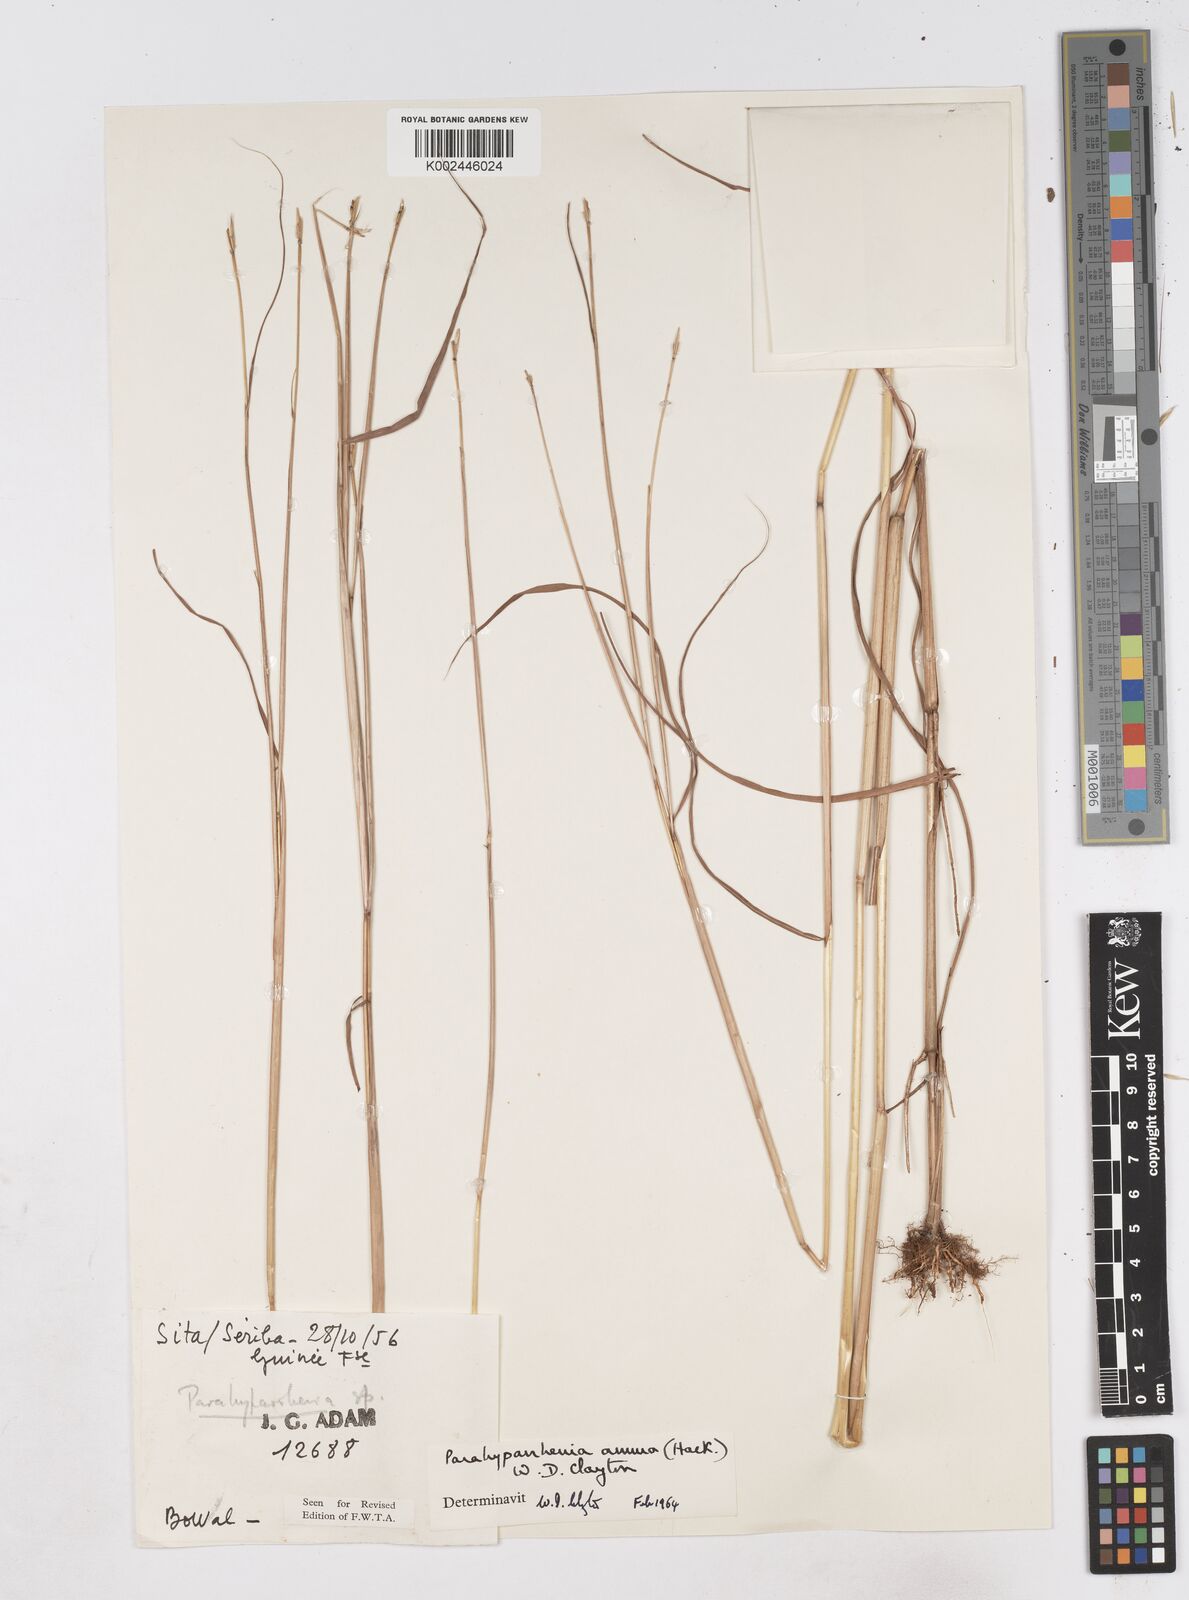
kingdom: Plantae
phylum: Tracheophyta
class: Liliopsida
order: Poales
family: Poaceae
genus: Parahyparrhenia
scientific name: Parahyparrhenia annua
